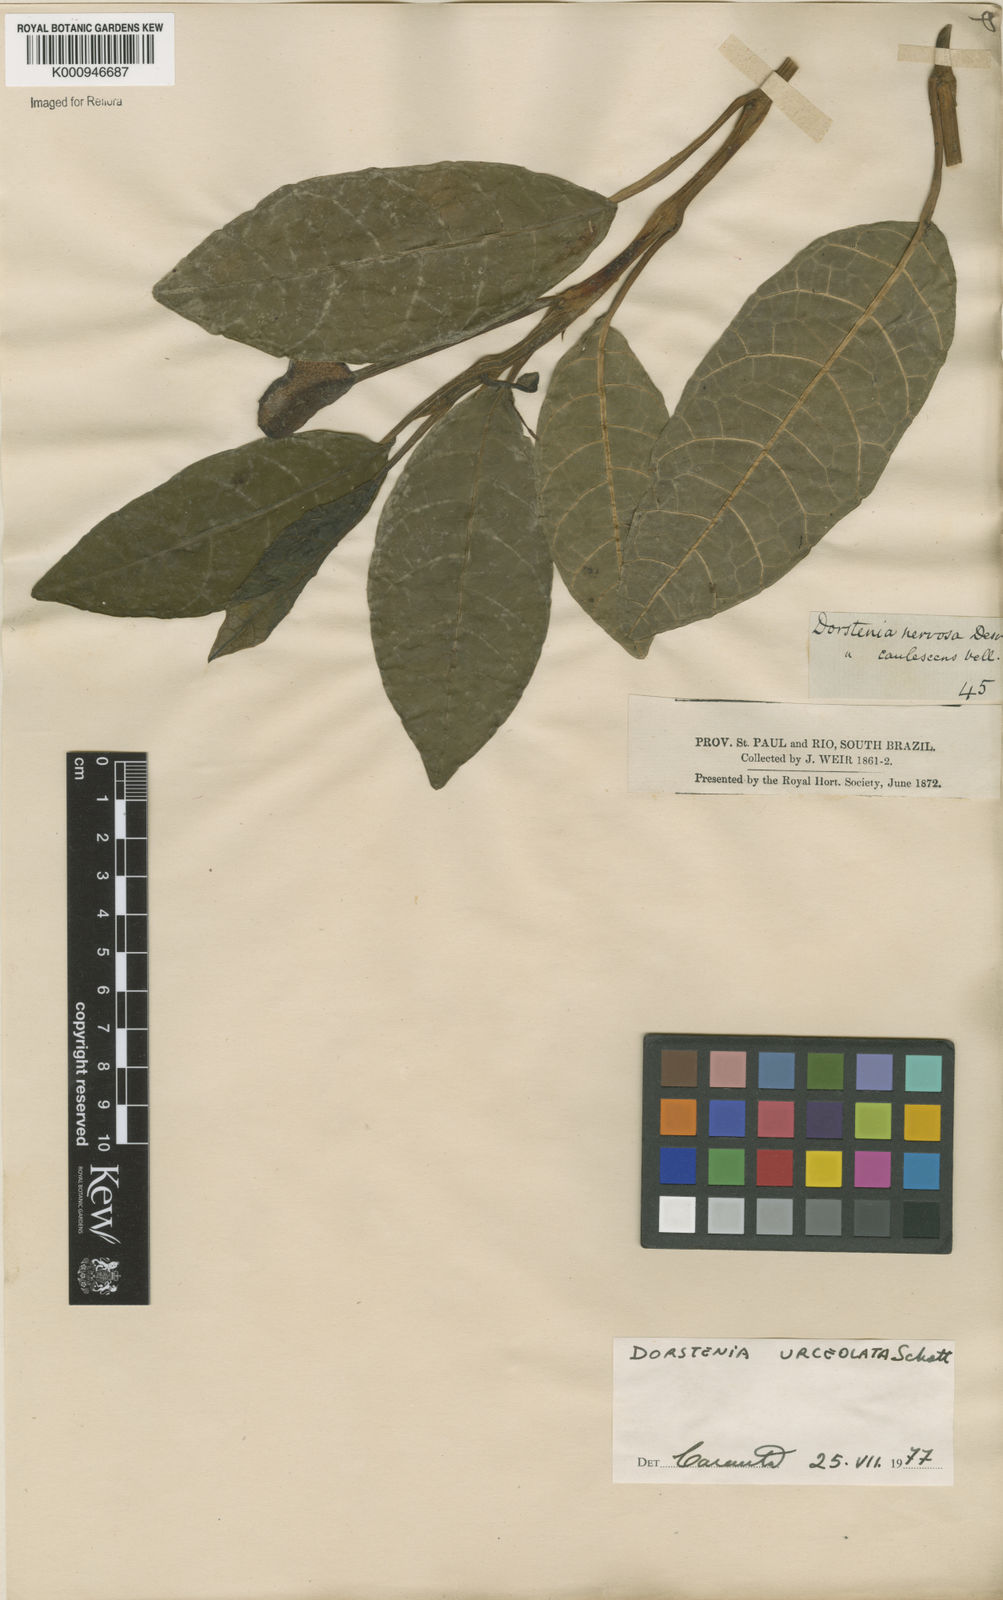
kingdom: Plantae
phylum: Tracheophyta
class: Magnoliopsida
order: Rosales
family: Moraceae
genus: Dorstenia
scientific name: Dorstenia urceolata
